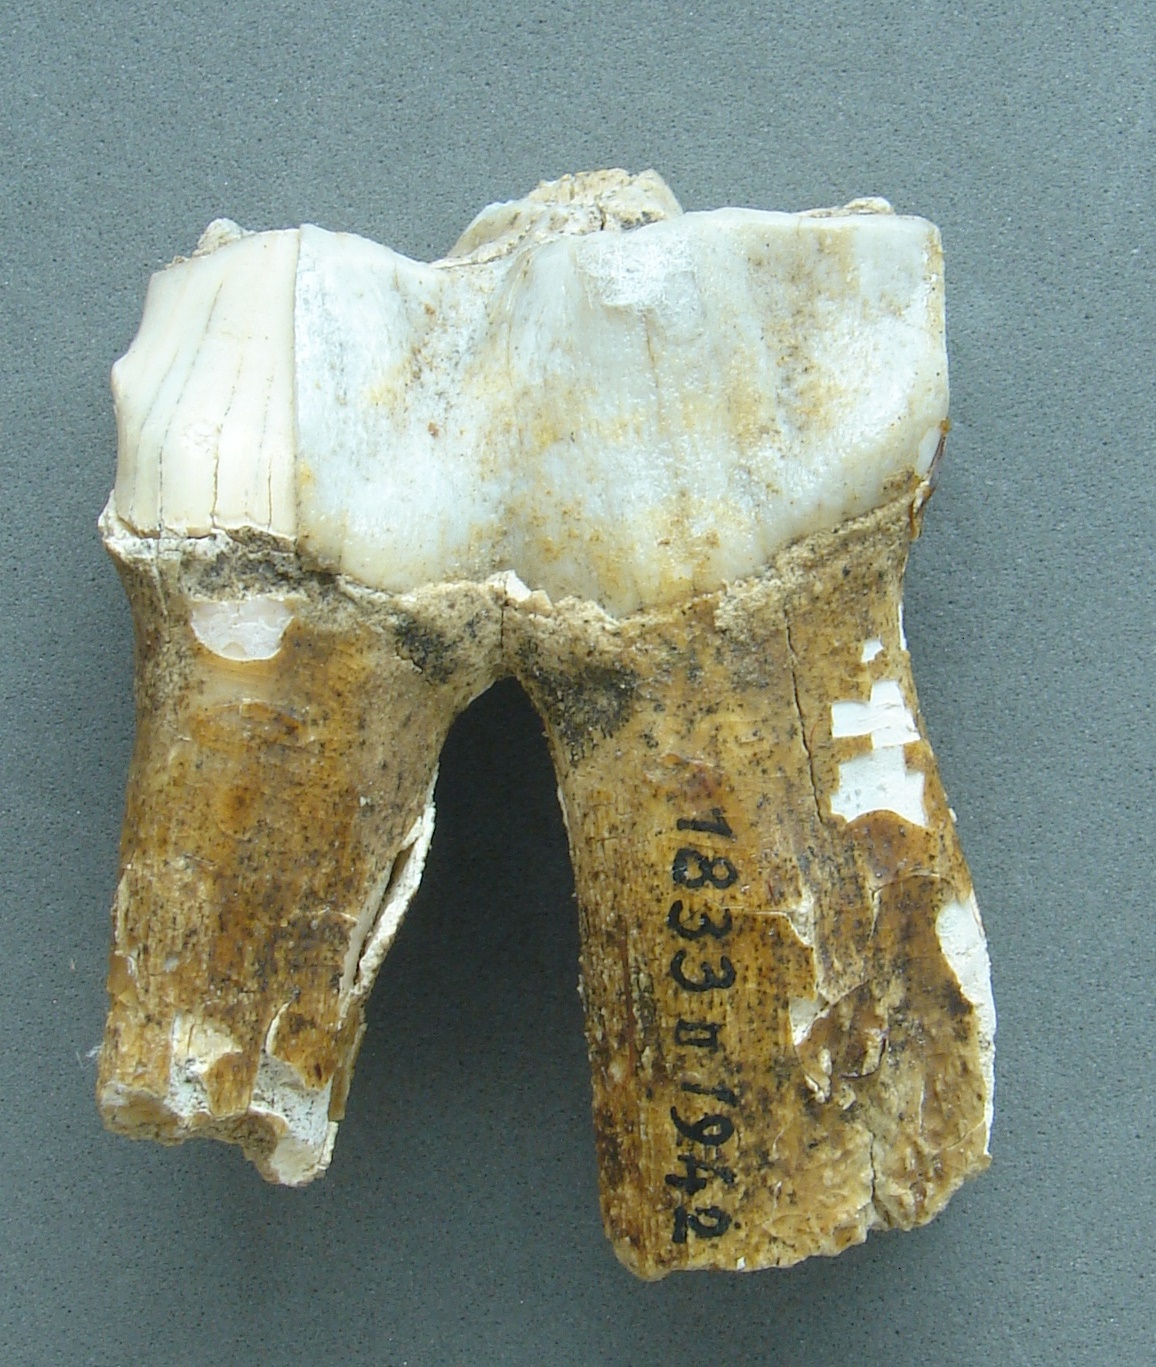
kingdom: Animalia
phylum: Chordata
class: Mammalia
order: Perissodactyla
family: Rhinocerotidae
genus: Rhinoceros
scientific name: Rhinoceros
